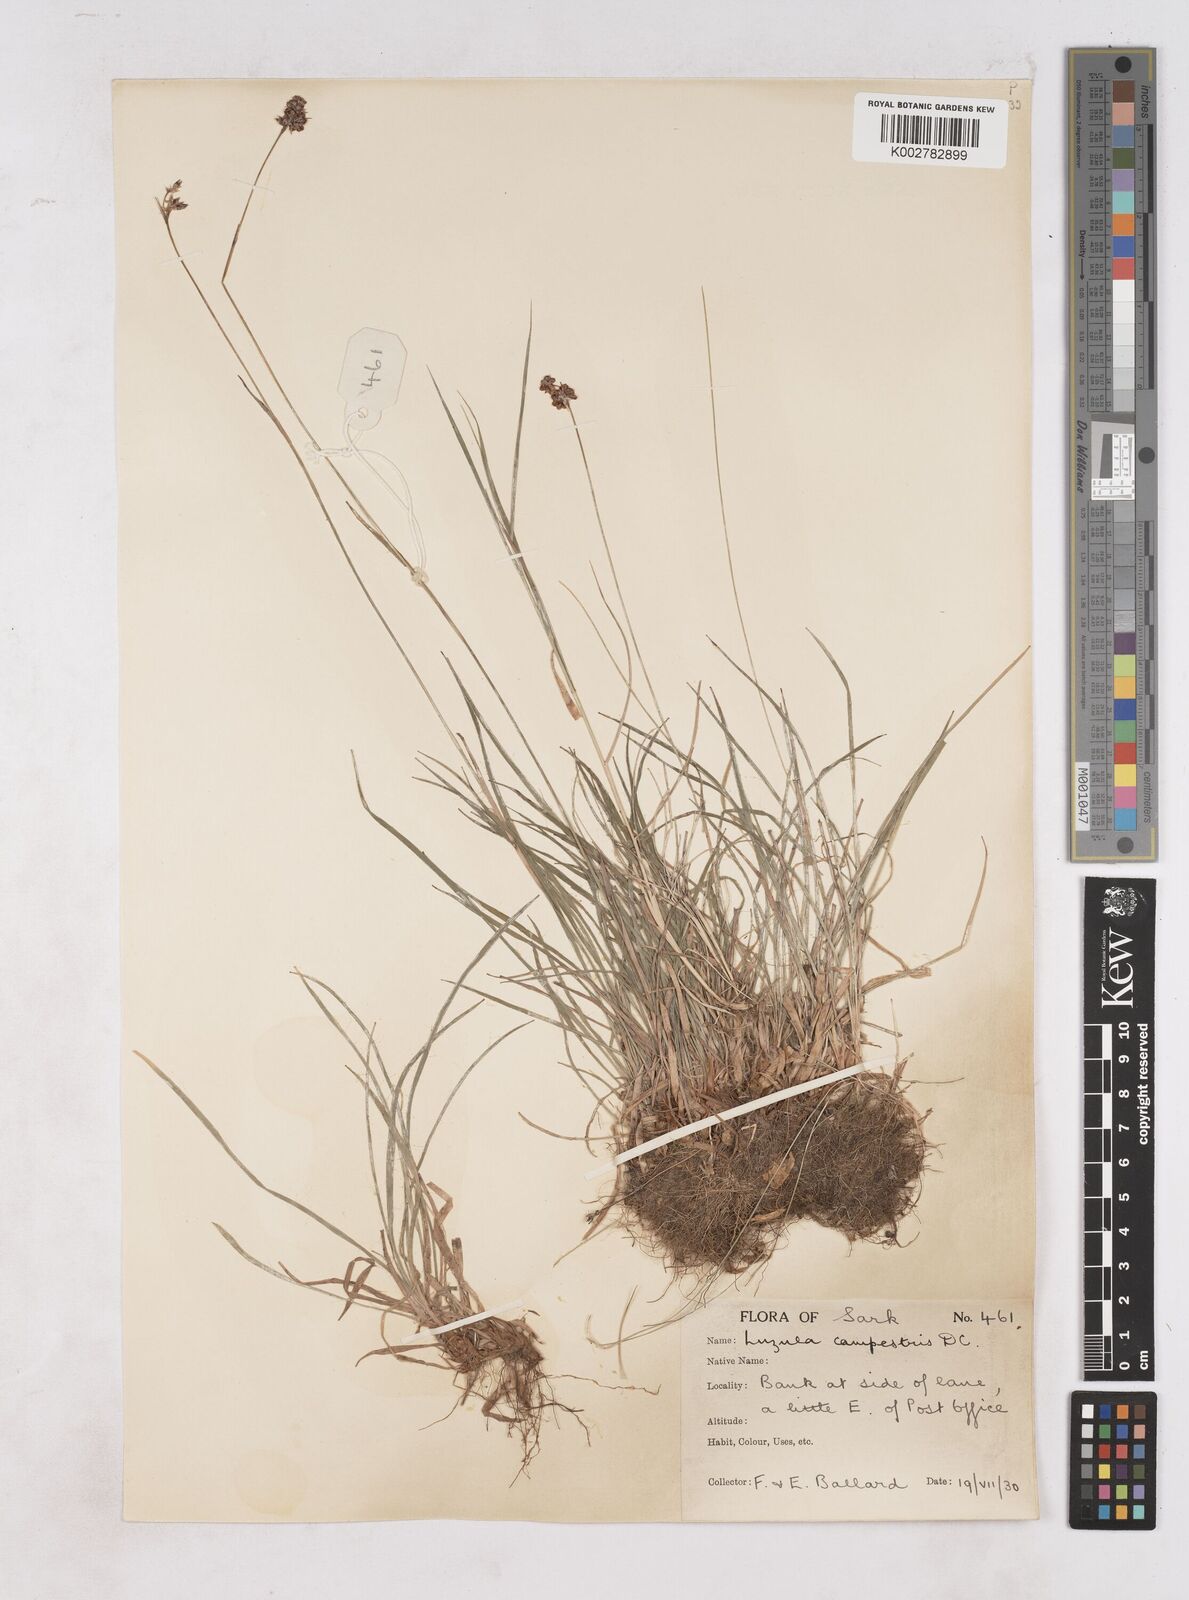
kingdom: Plantae
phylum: Tracheophyta
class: Liliopsida
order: Poales
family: Juncaceae
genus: Luzula
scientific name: Luzula campestris
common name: Field wood-rush
